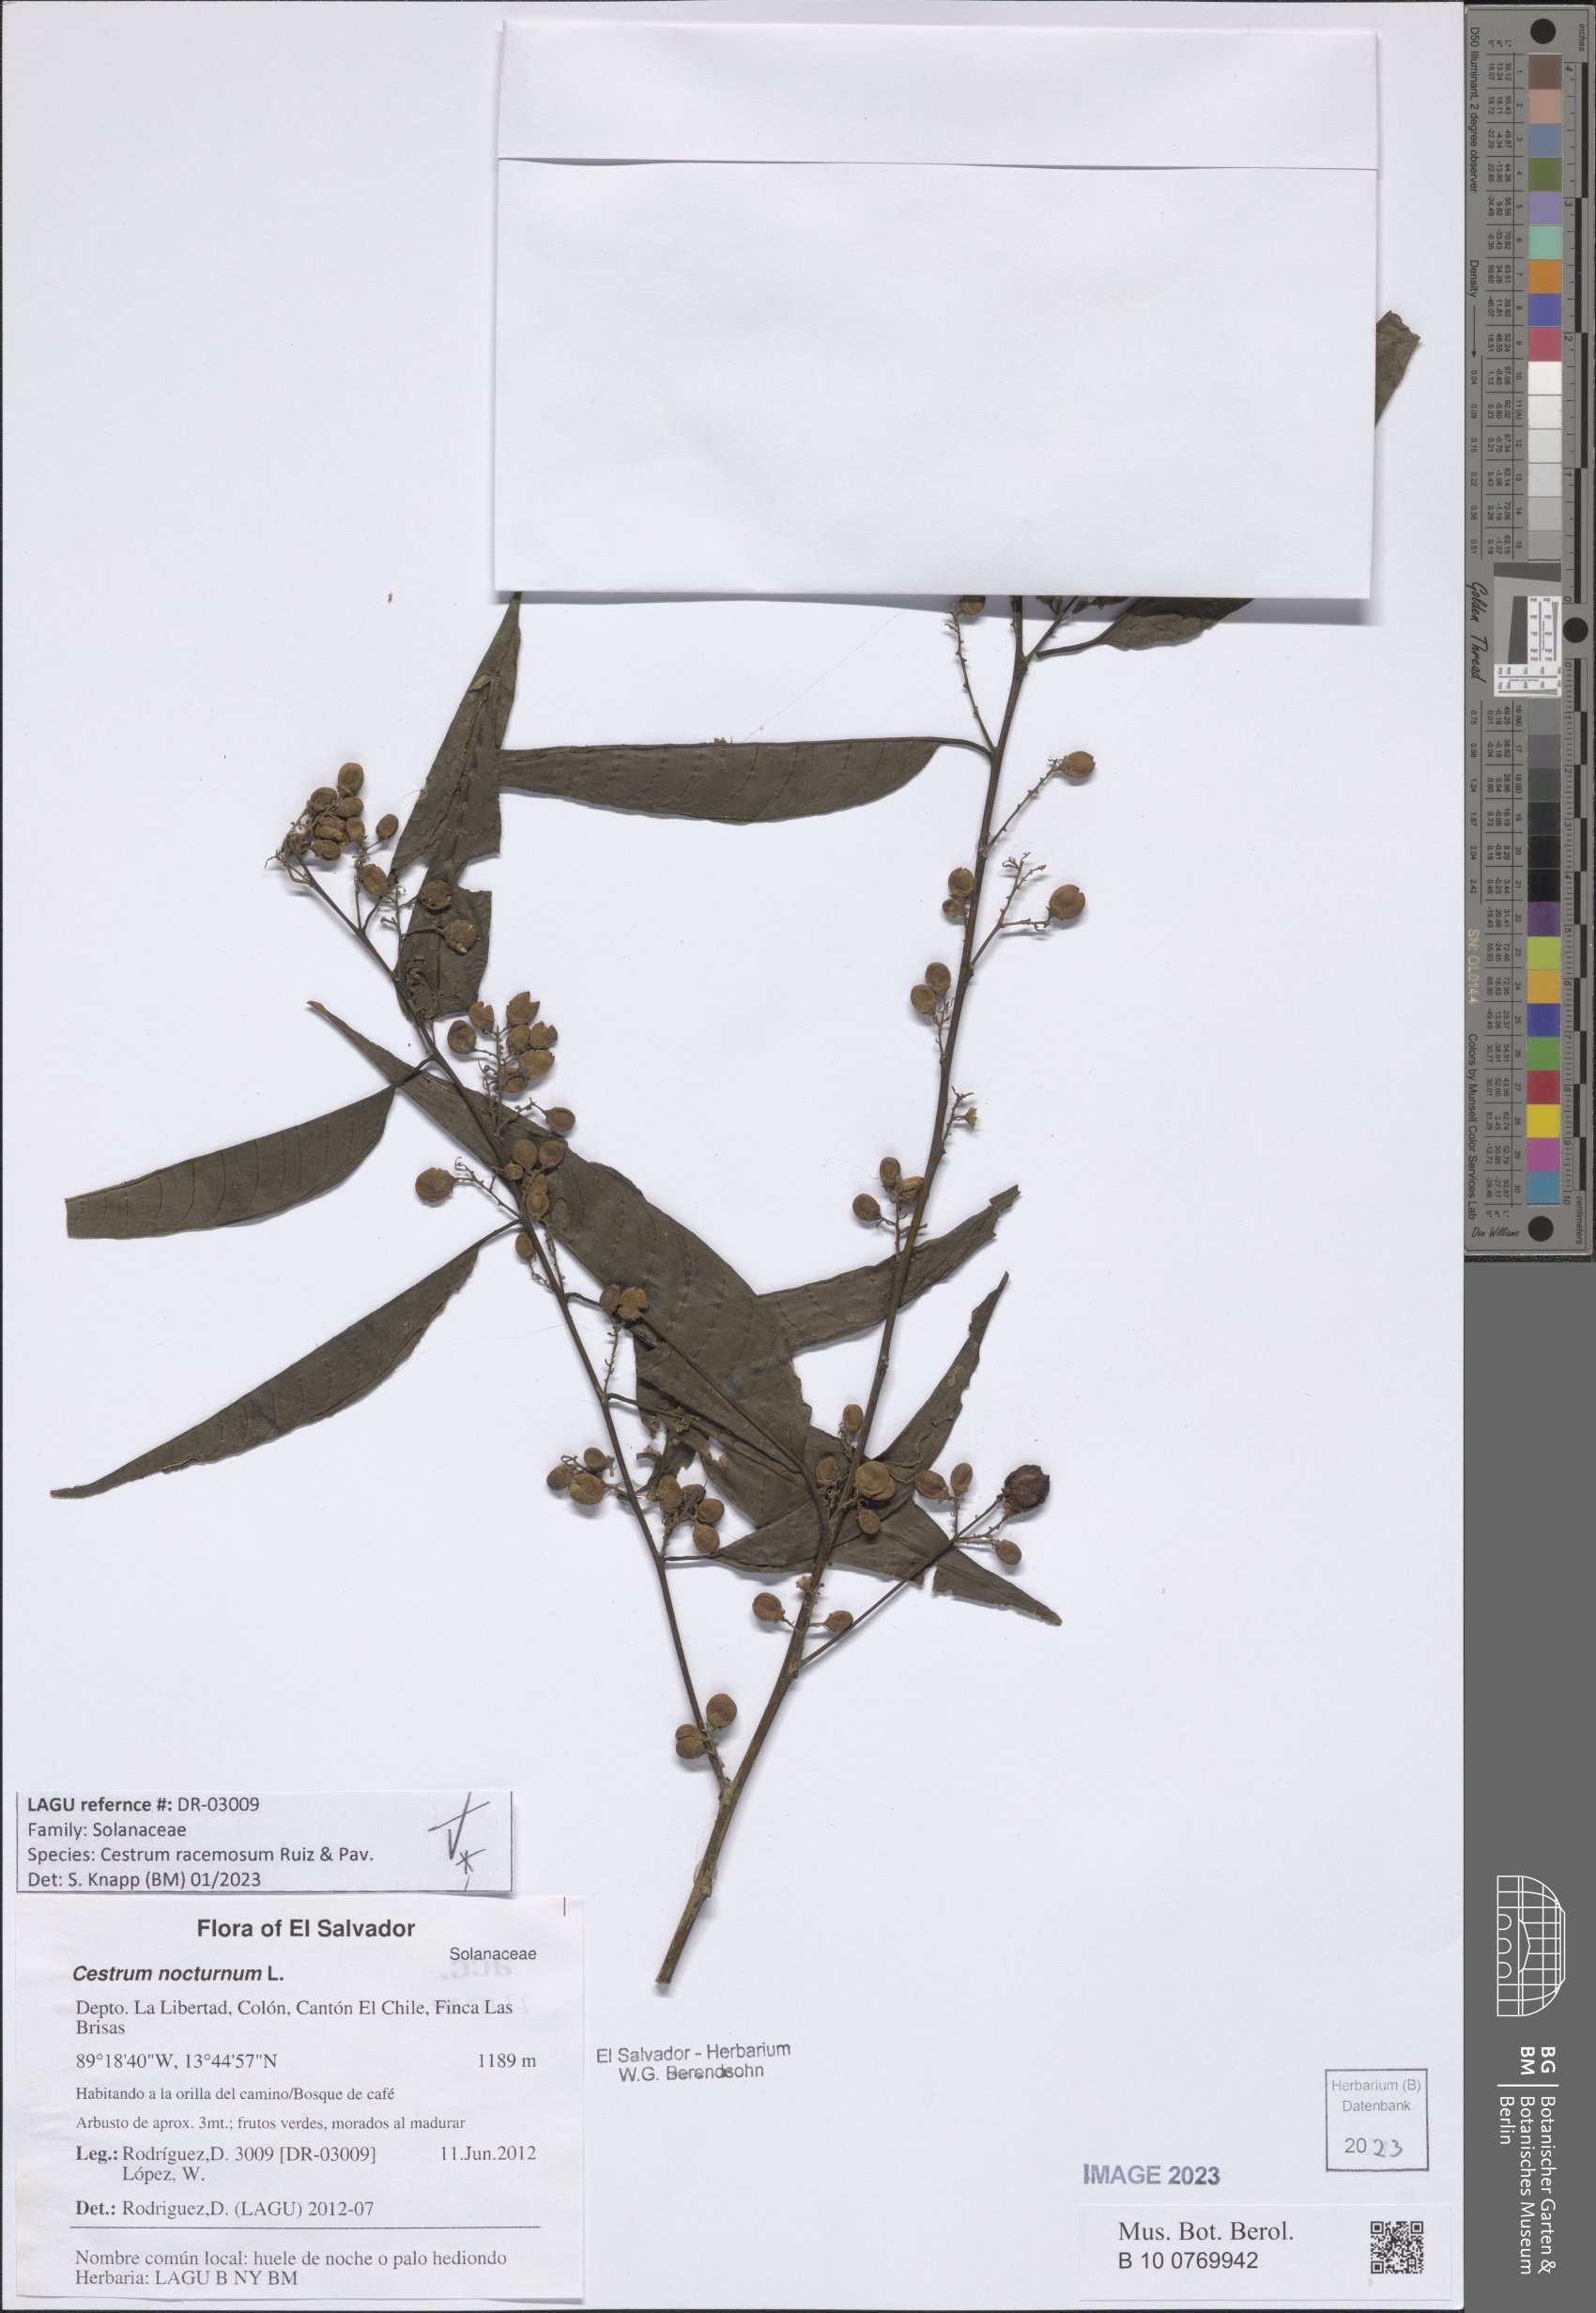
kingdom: Plantae
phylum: Tracheophyta
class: Magnoliopsida
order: Solanales
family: Solanaceae
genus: Cestrum
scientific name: Cestrum racemosum
